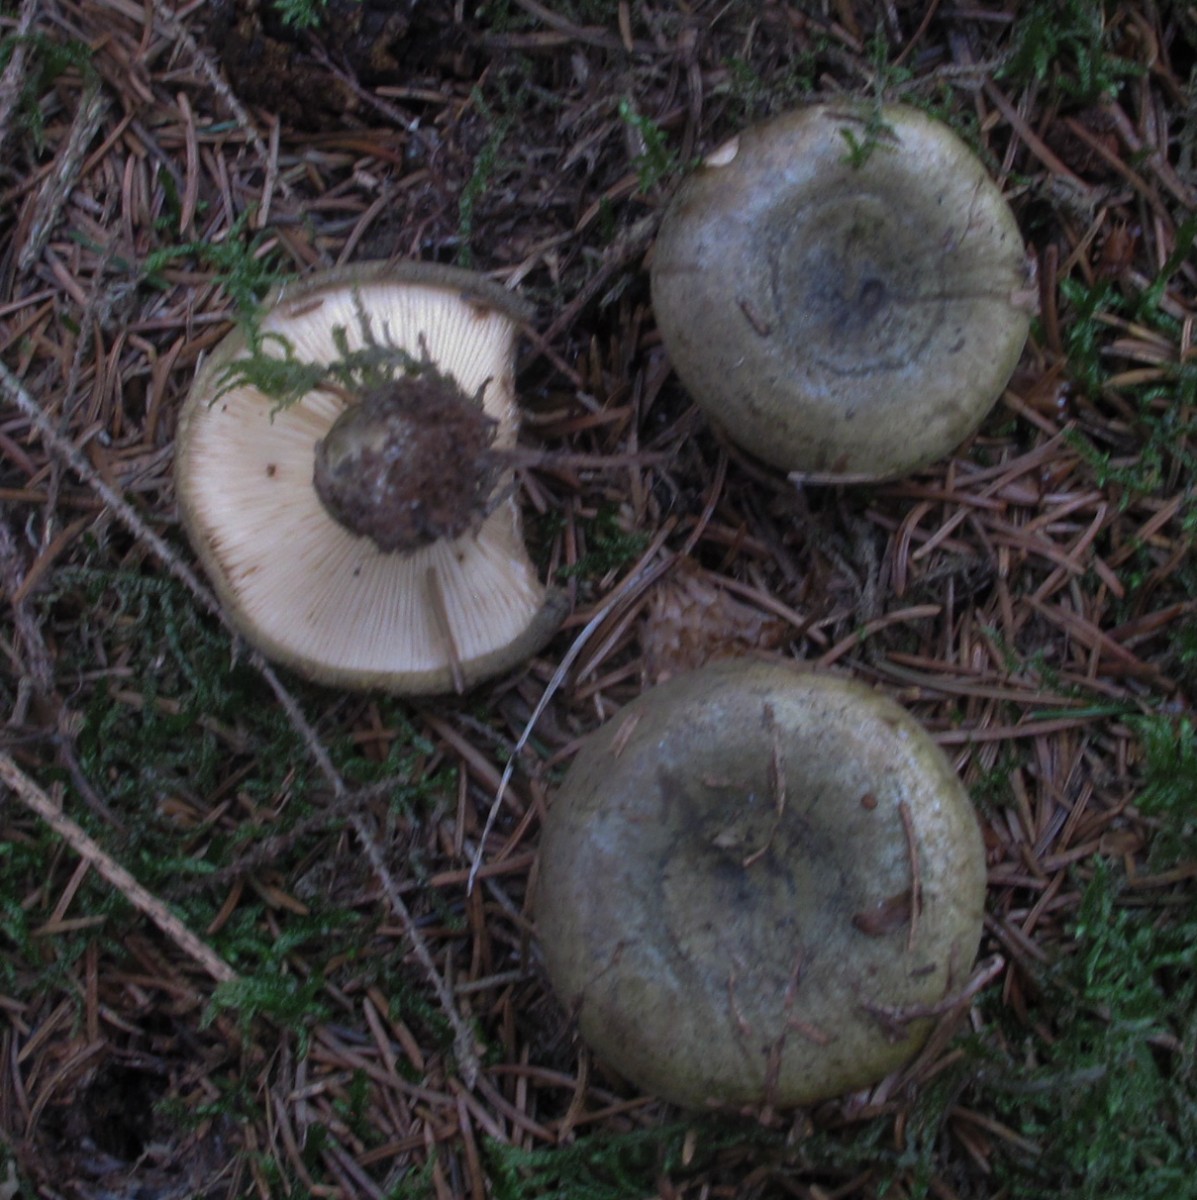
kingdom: Fungi
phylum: Basidiomycota
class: Agaricomycetes
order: Russulales
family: Russulaceae
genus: Lactarius
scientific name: Lactarius necator
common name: manddraber-mælkehat
